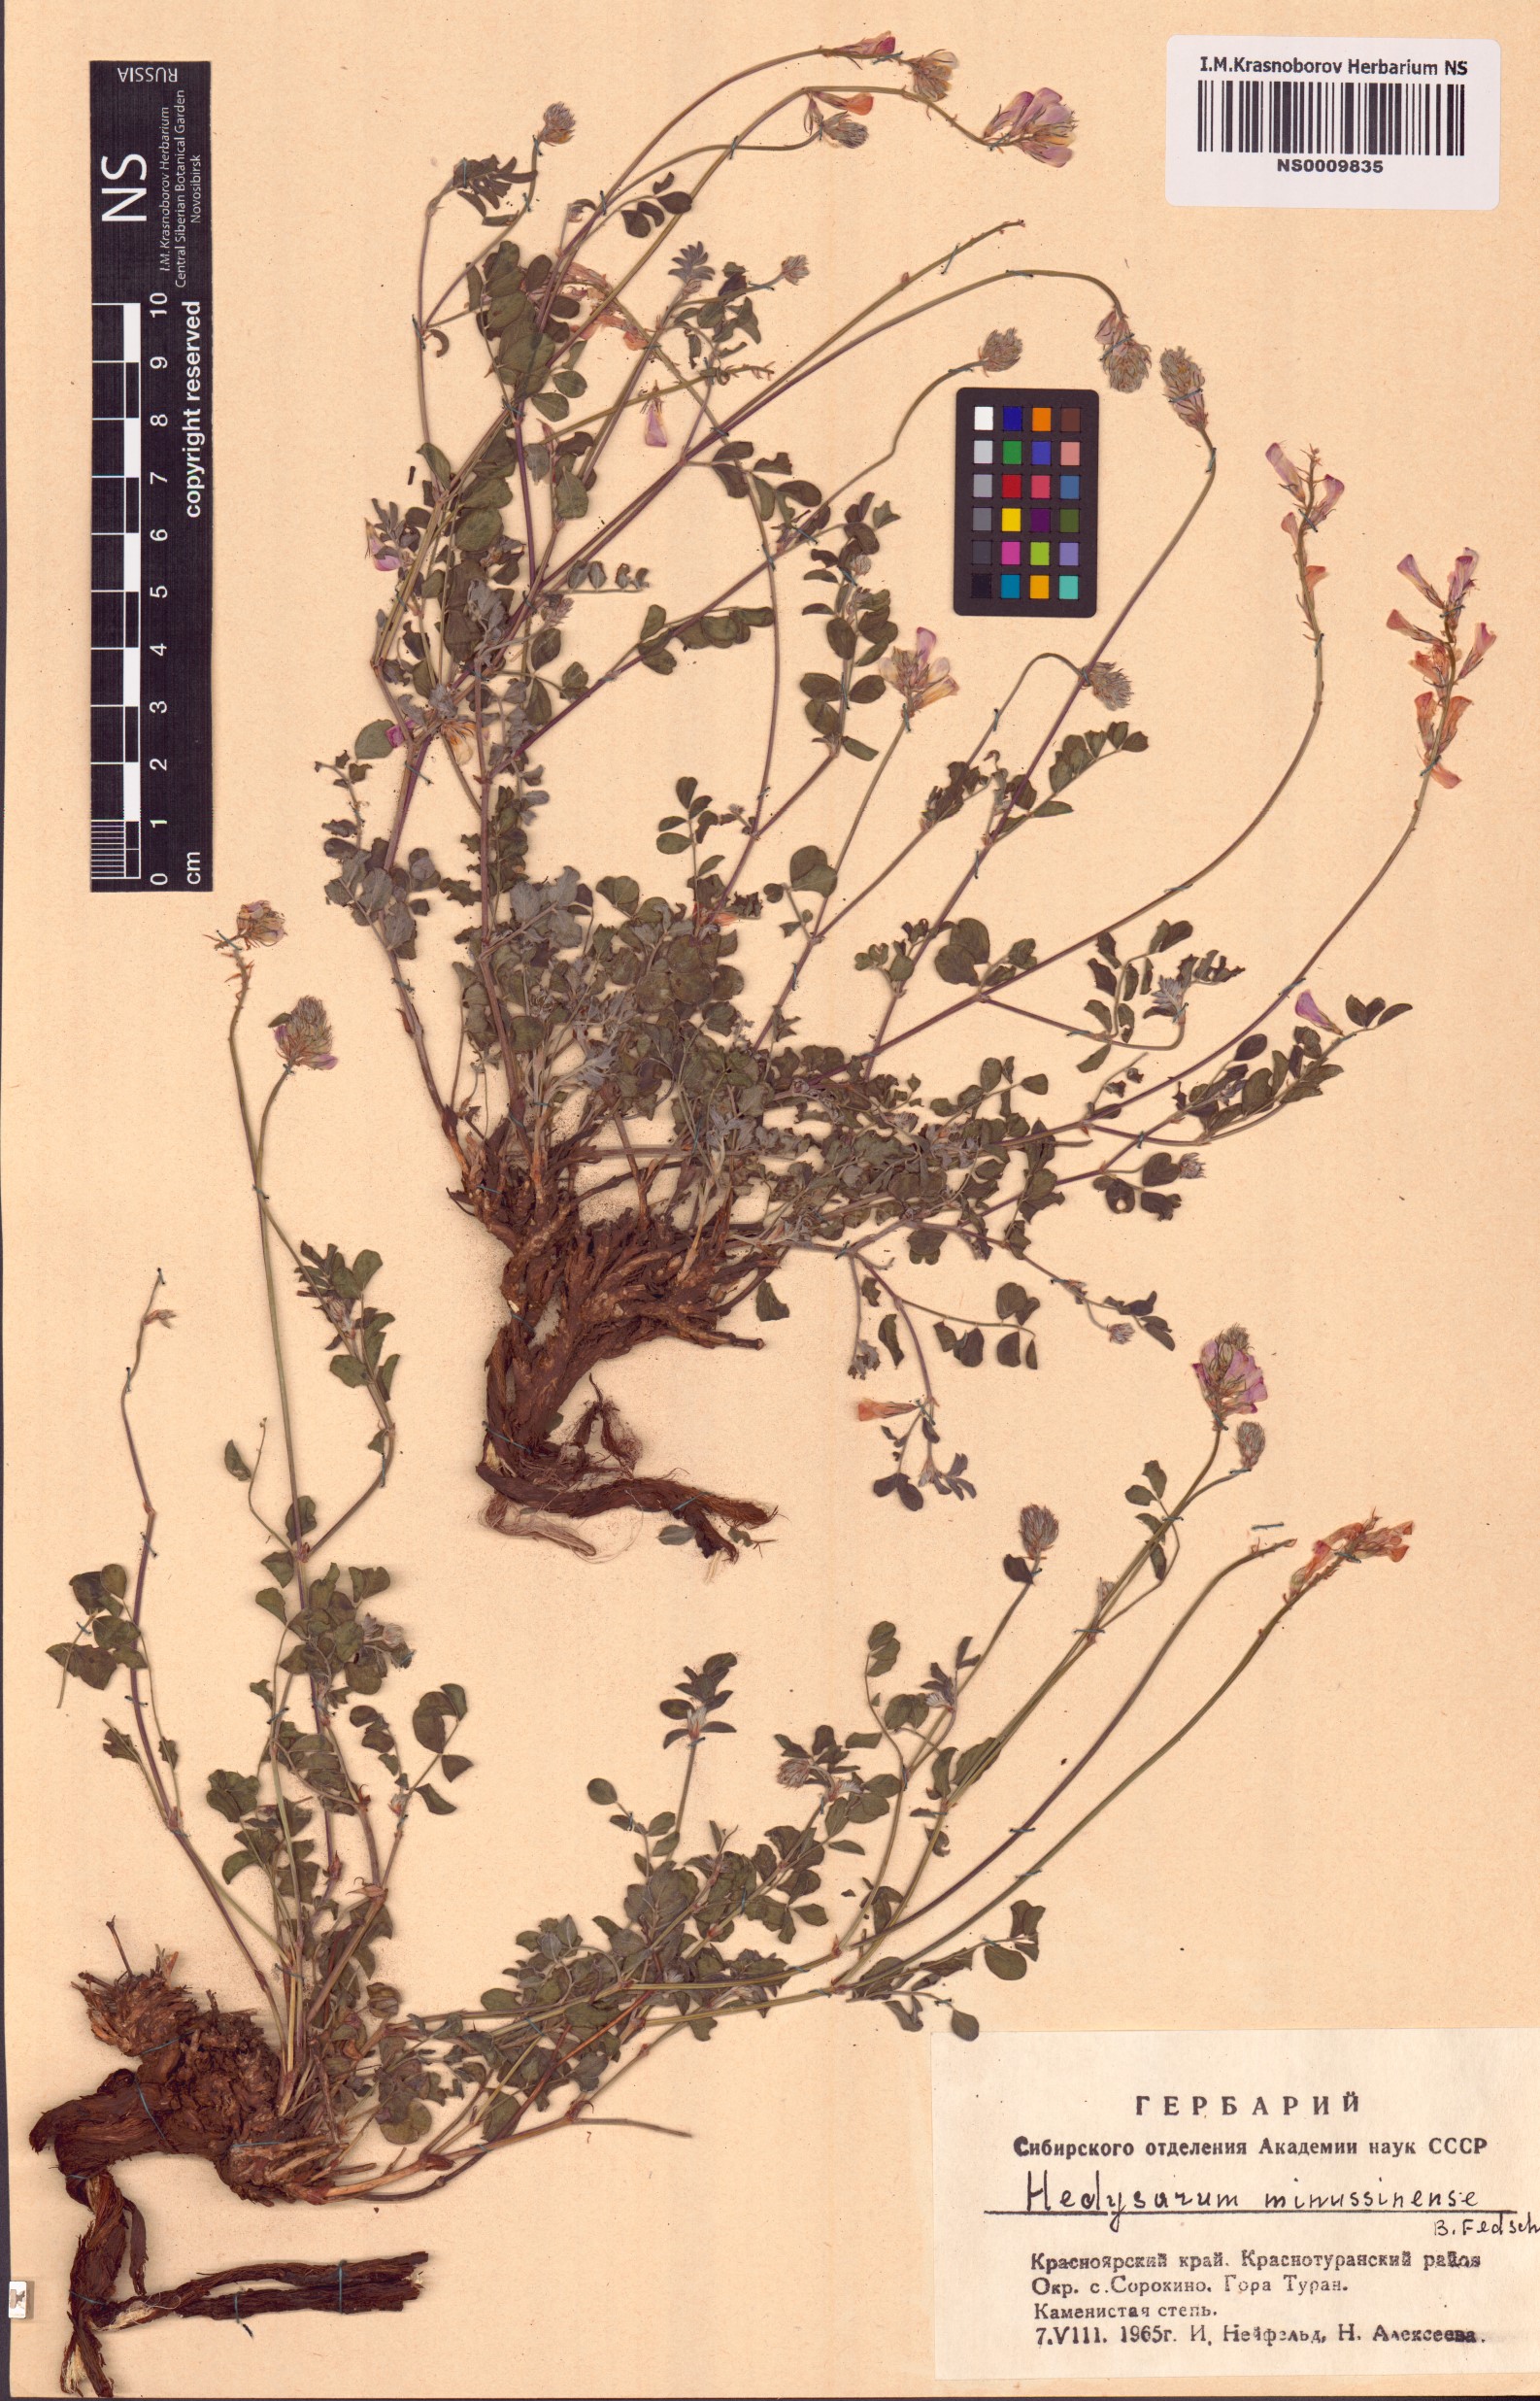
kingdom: Plantae
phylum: Tracheophyta
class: Magnoliopsida
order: Fabales
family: Fabaceae
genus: Hedysarum
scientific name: Hedysarum minussinense
